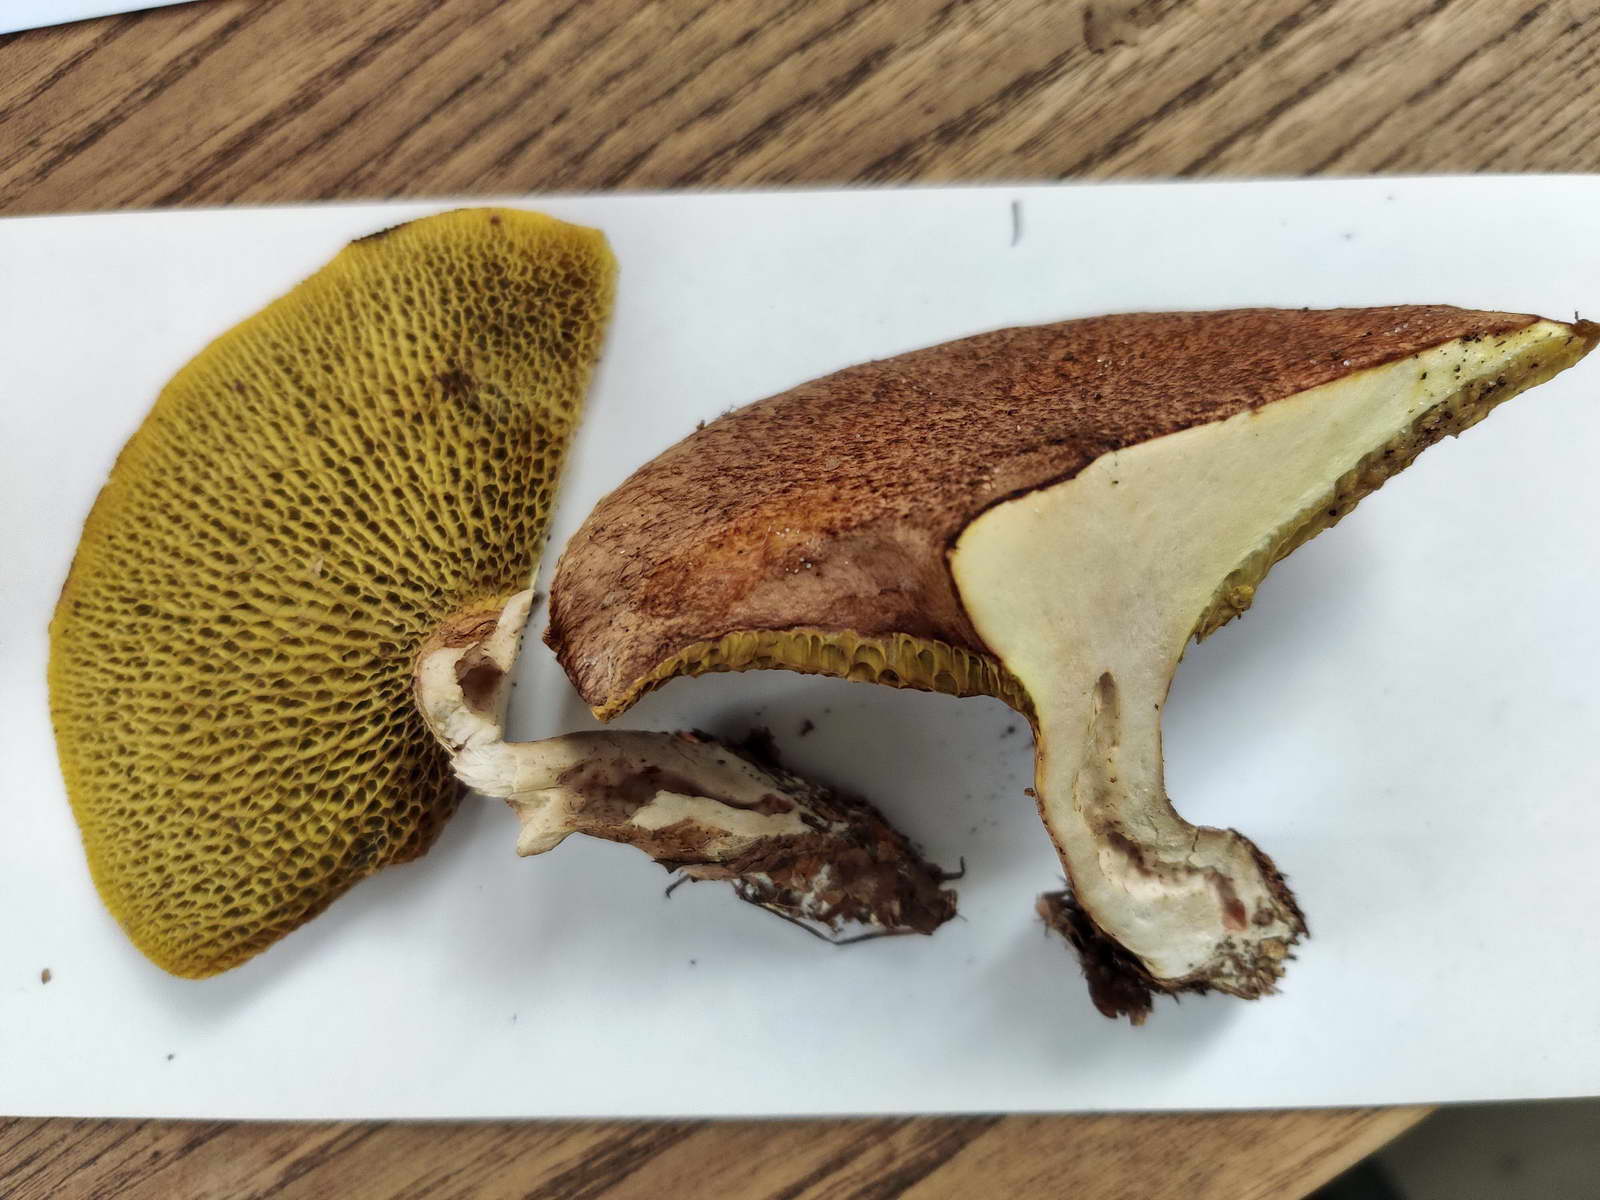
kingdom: Fungi
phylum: Basidiomycota
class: Agaricomycetes
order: Boletales
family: Suillaceae
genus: Suillus
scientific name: Suillus cavipes
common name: hulstokket slimrørhat
